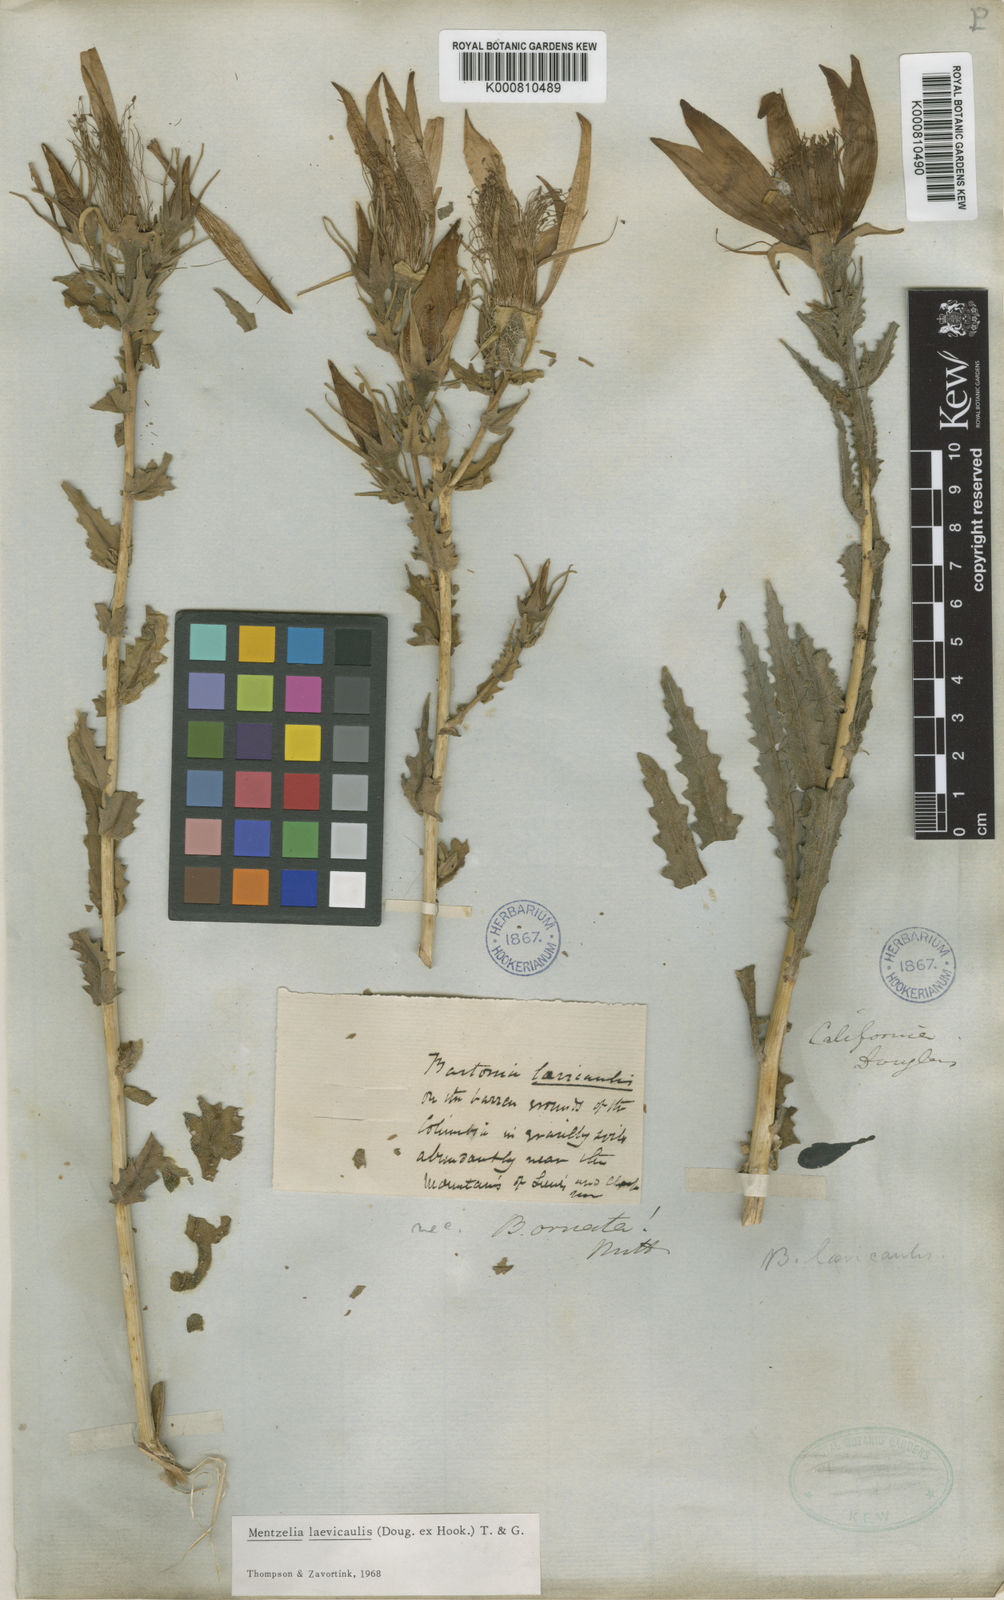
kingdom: Plantae
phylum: Tracheophyta
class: Magnoliopsida
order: Cornales
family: Loasaceae
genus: Mentzelia
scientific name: Mentzelia laevicaulis
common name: Smooth-stem blazingstar
